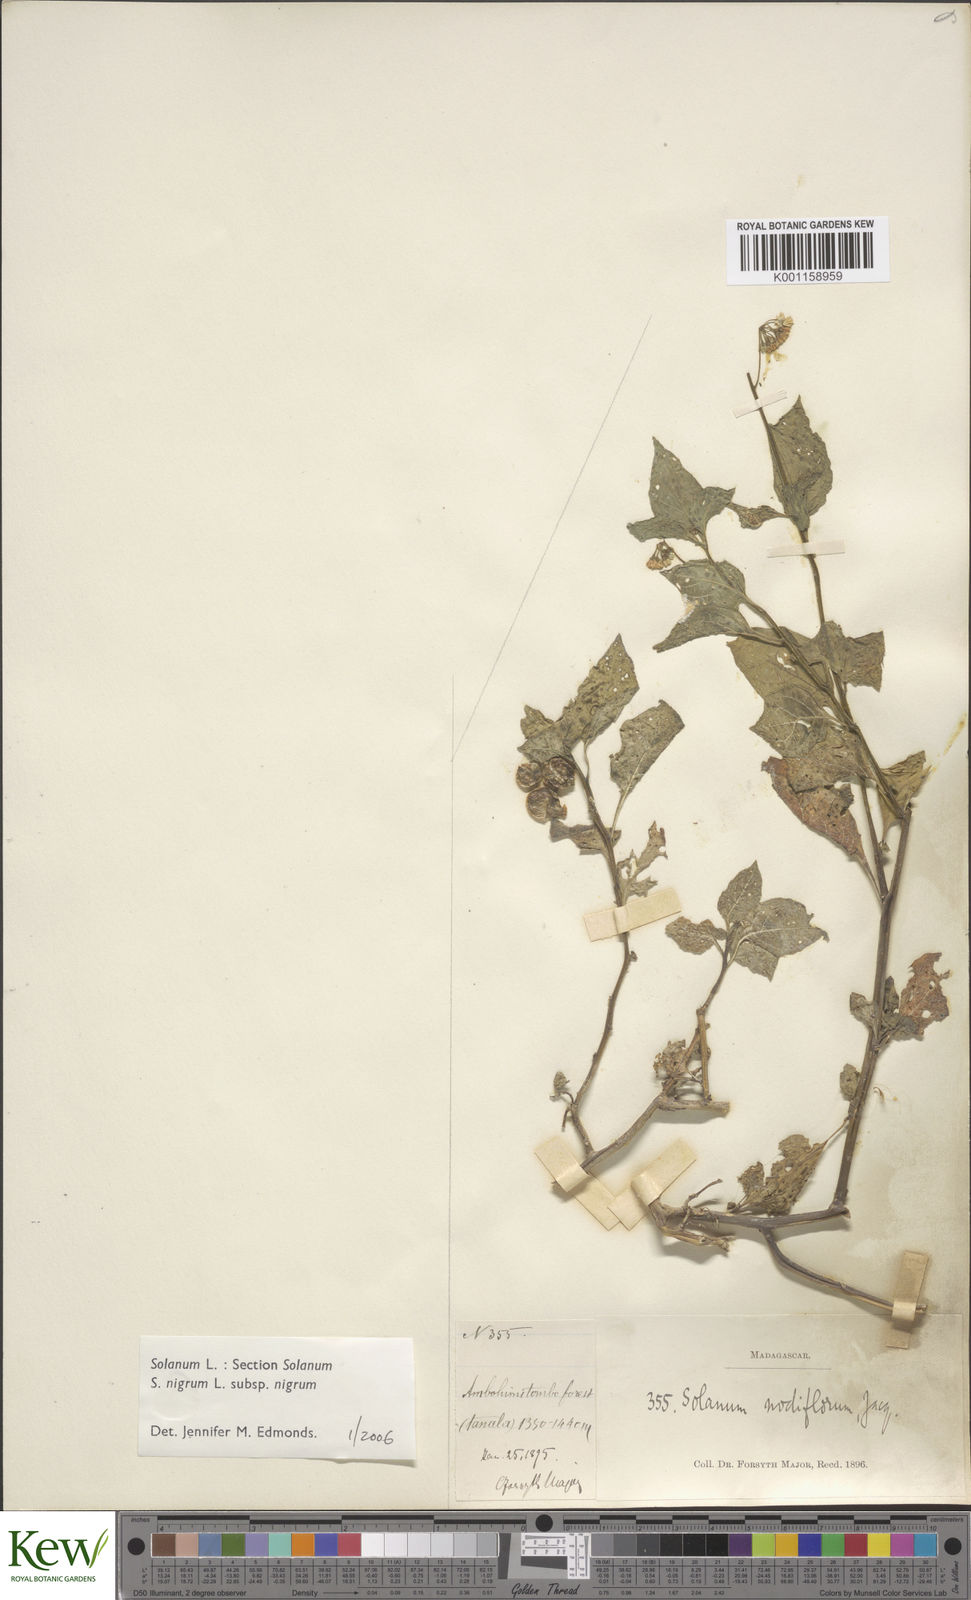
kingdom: Plantae
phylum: Tracheophyta
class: Magnoliopsida
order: Solanales
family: Solanaceae
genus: Solanum
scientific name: Solanum nigrum
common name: Black nightshade
